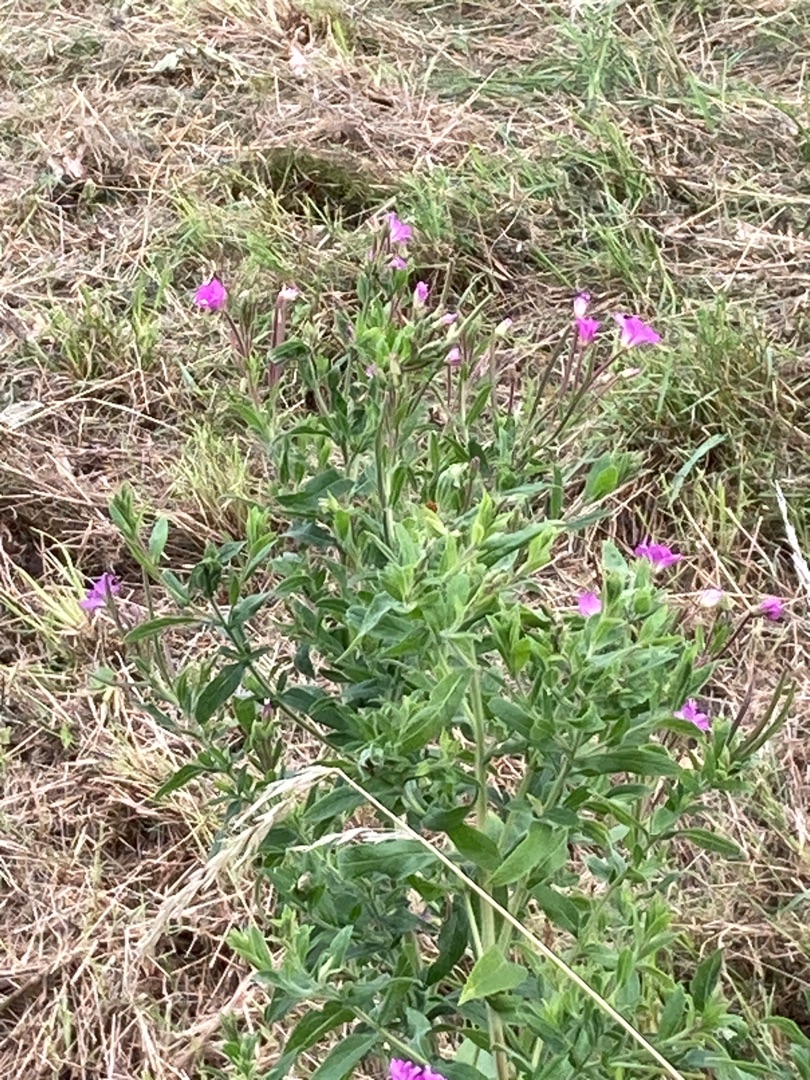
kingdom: Plantae
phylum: Tracheophyta
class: Magnoliopsida
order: Myrtales
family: Onagraceae
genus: Epilobium
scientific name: Epilobium hirsutum
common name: Lådden dueurt
